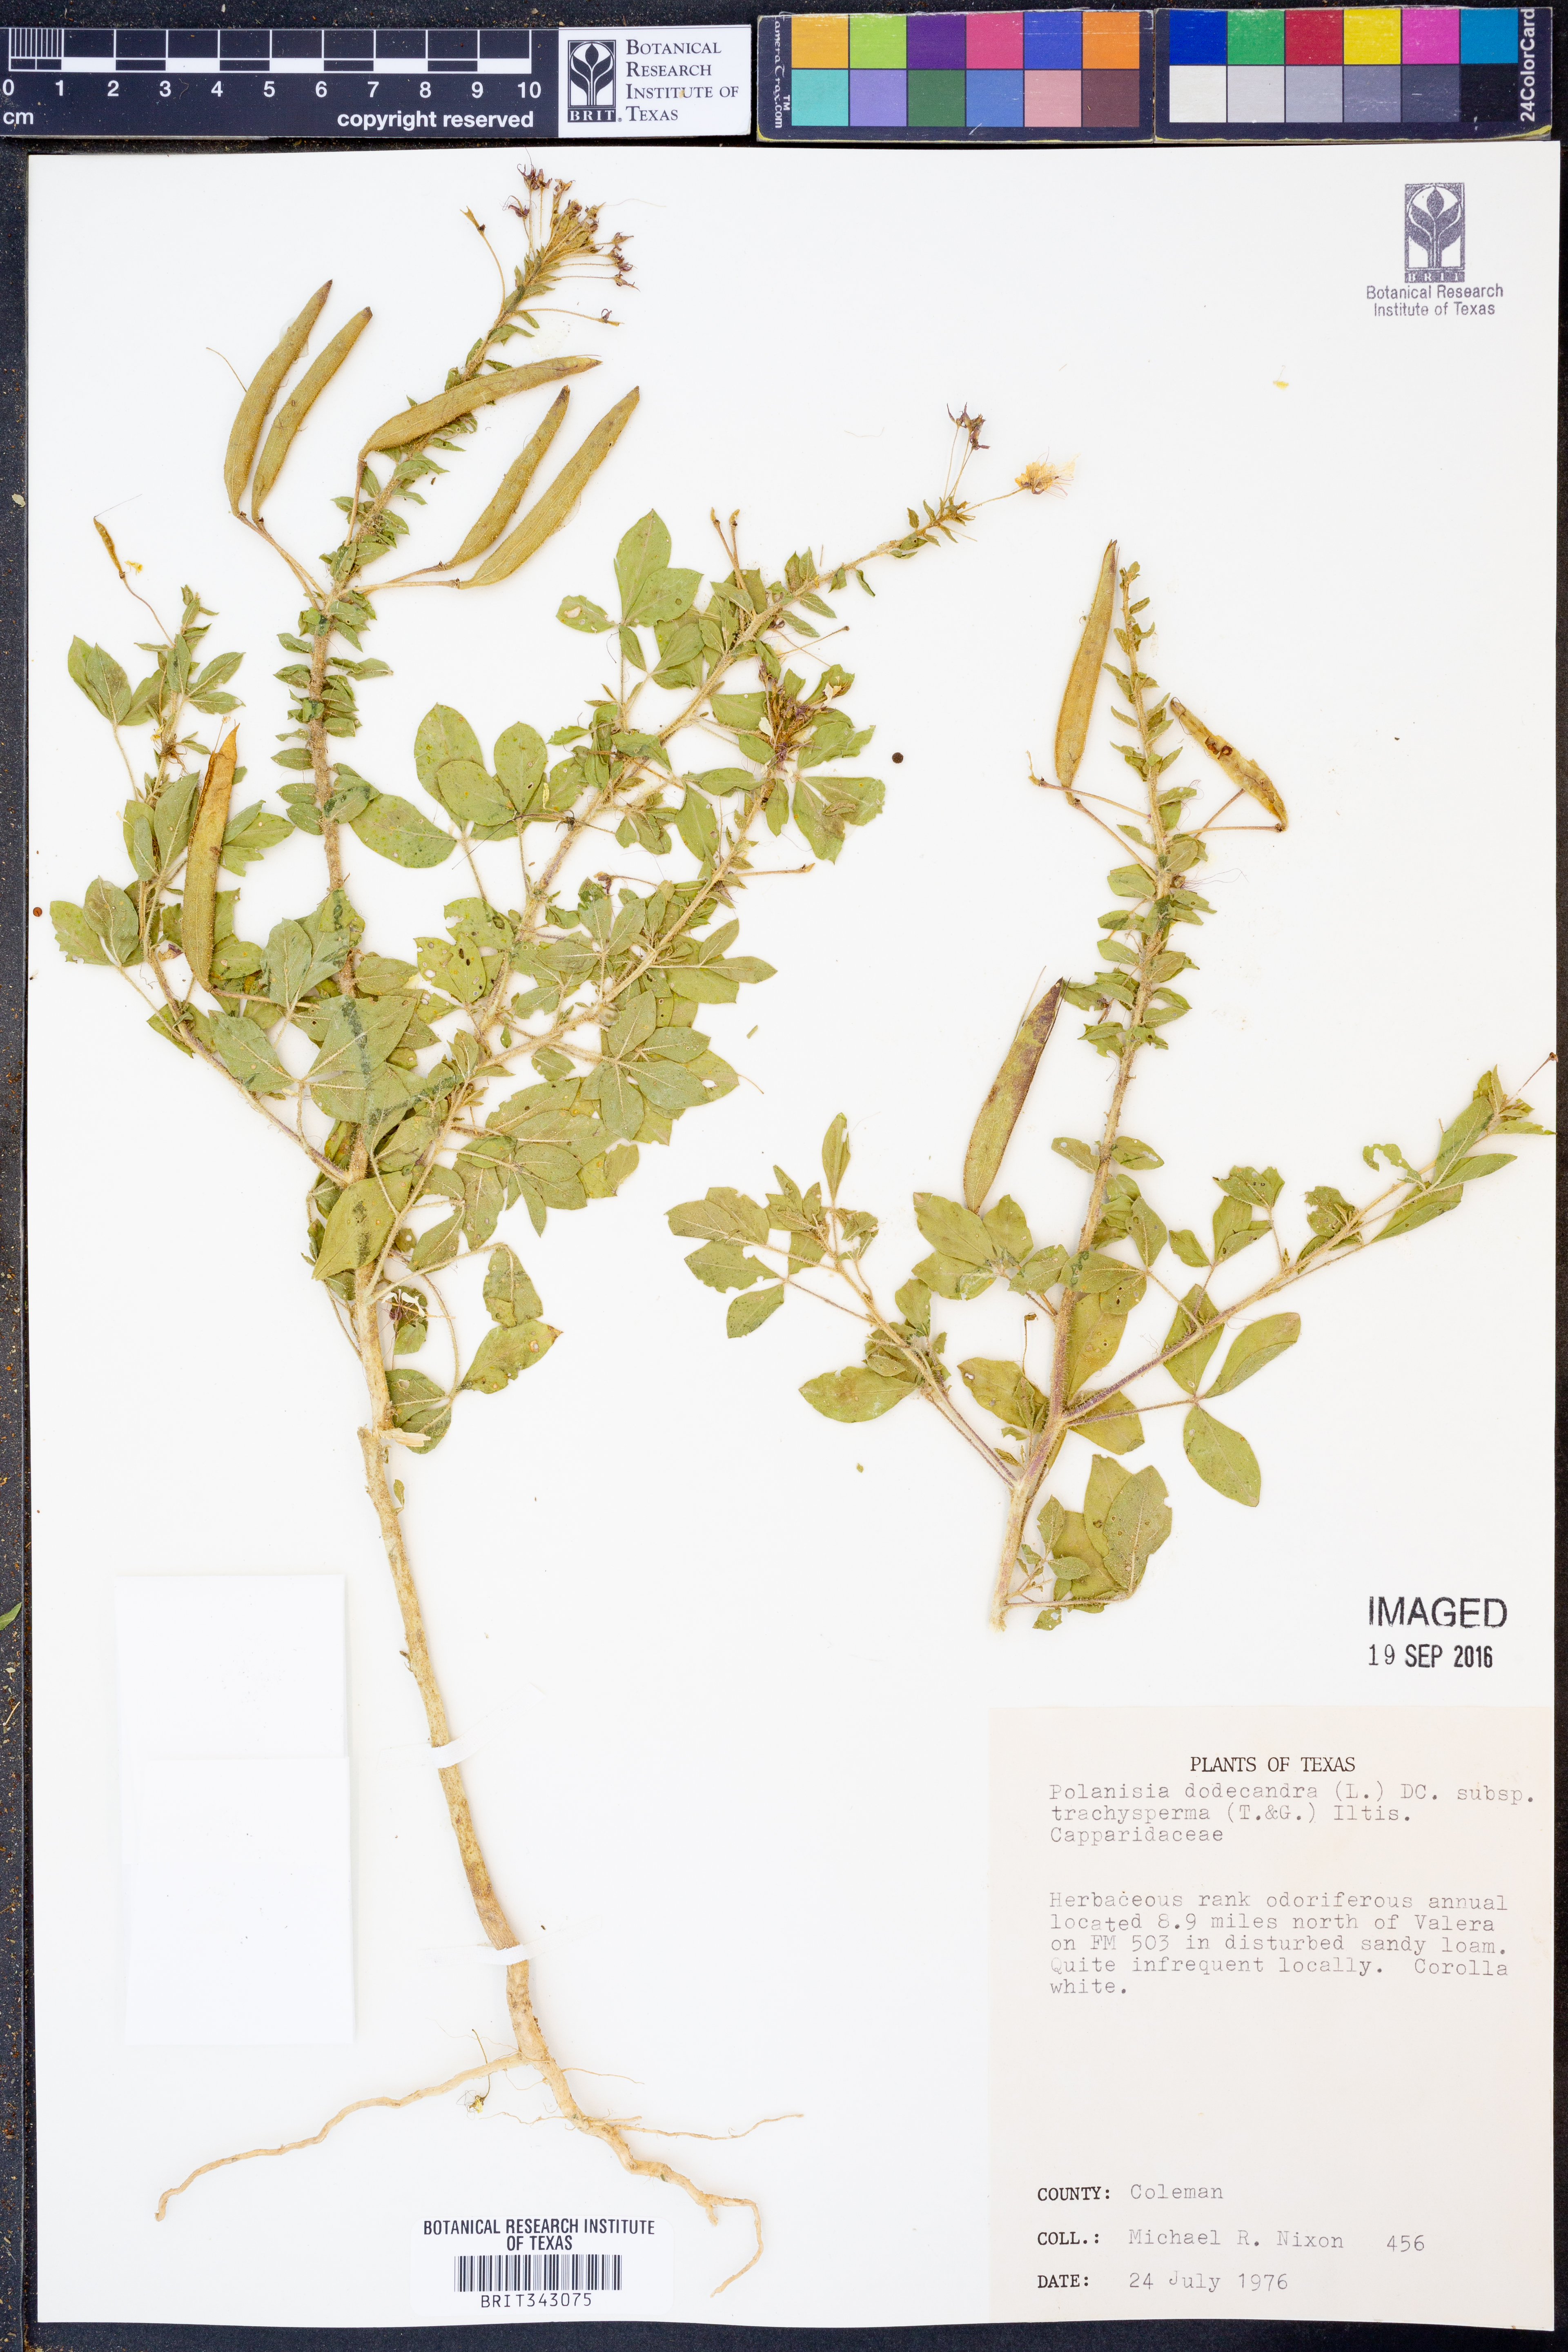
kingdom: Plantae
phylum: Tracheophyta
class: Magnoliopsida
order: Brassicales
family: Cleomaceae
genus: Polanisia
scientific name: Polanisia trachysperma
